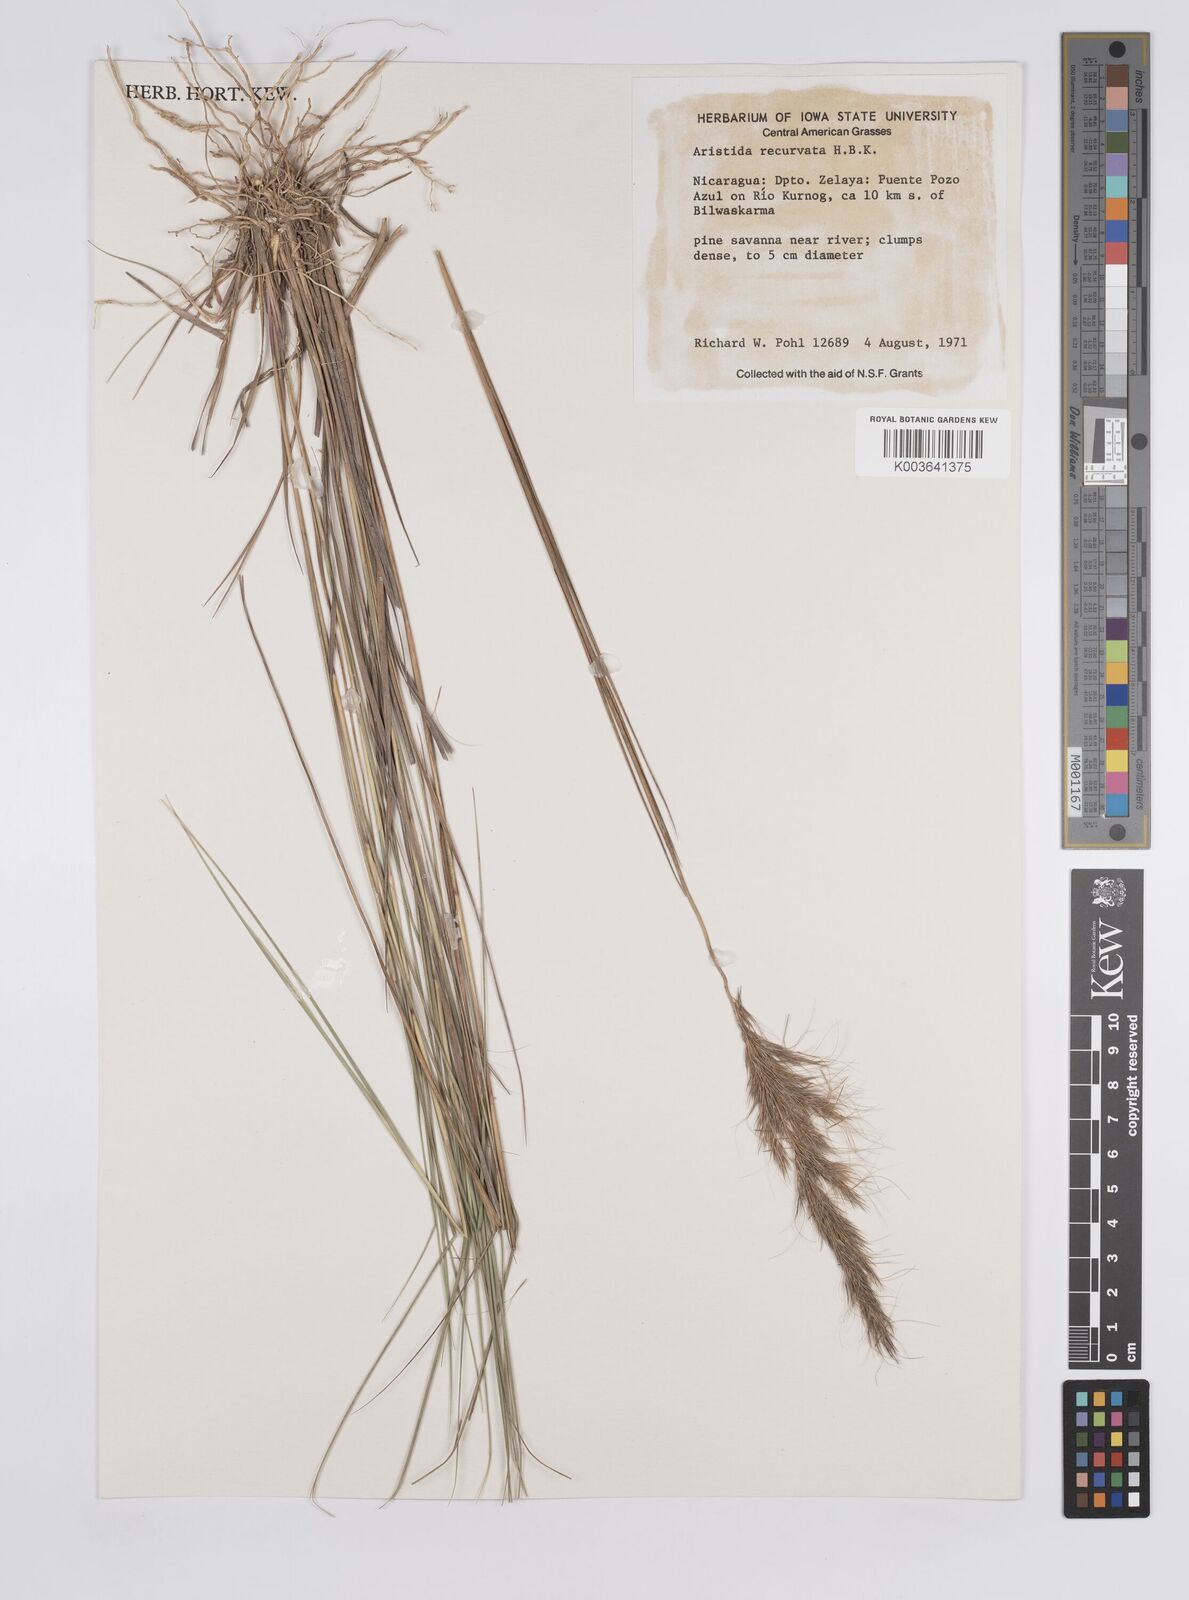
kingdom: Plantae
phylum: Tracheophyta
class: Liliopsida
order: Poales
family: Poaceae
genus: Aristida
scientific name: Aristida recurvata
